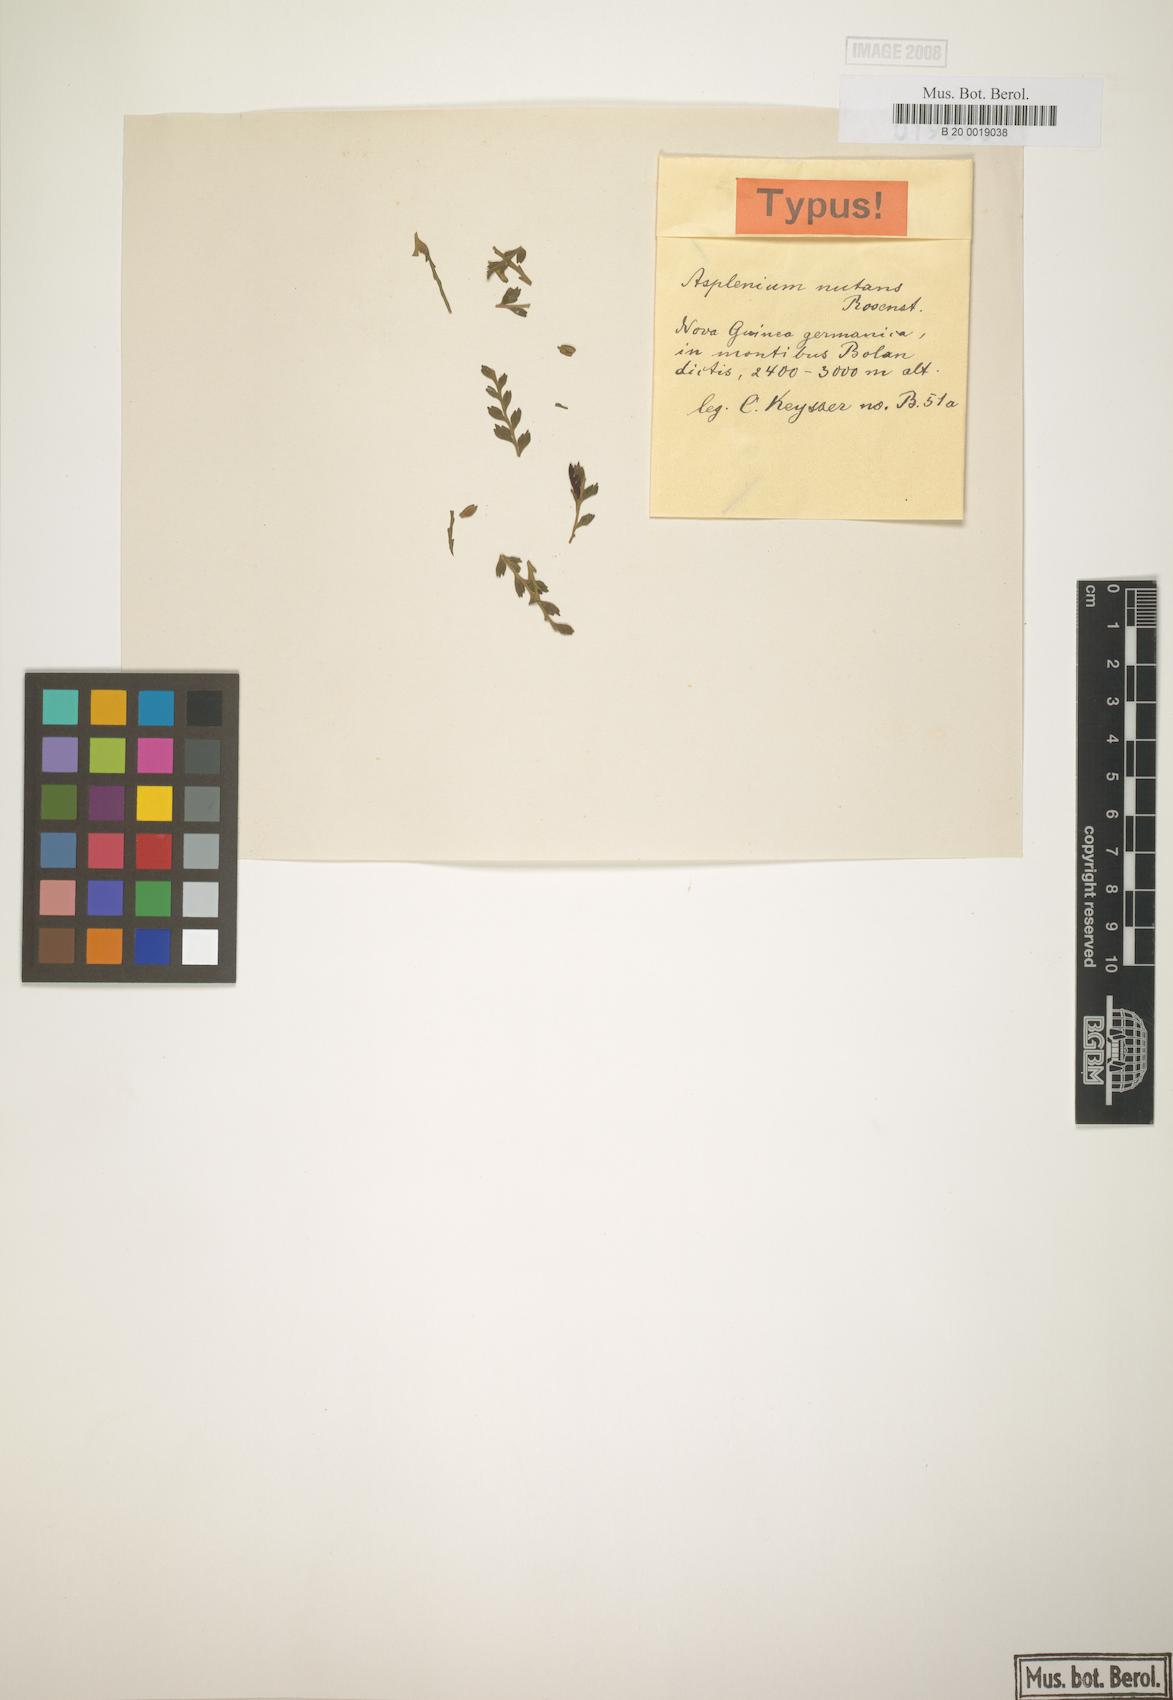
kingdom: Plantae
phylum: Tracheophyta
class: Polypodiopsida
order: Polypodiales
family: Aspleniaceae
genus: Asplenium
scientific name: Asplenium nutans
